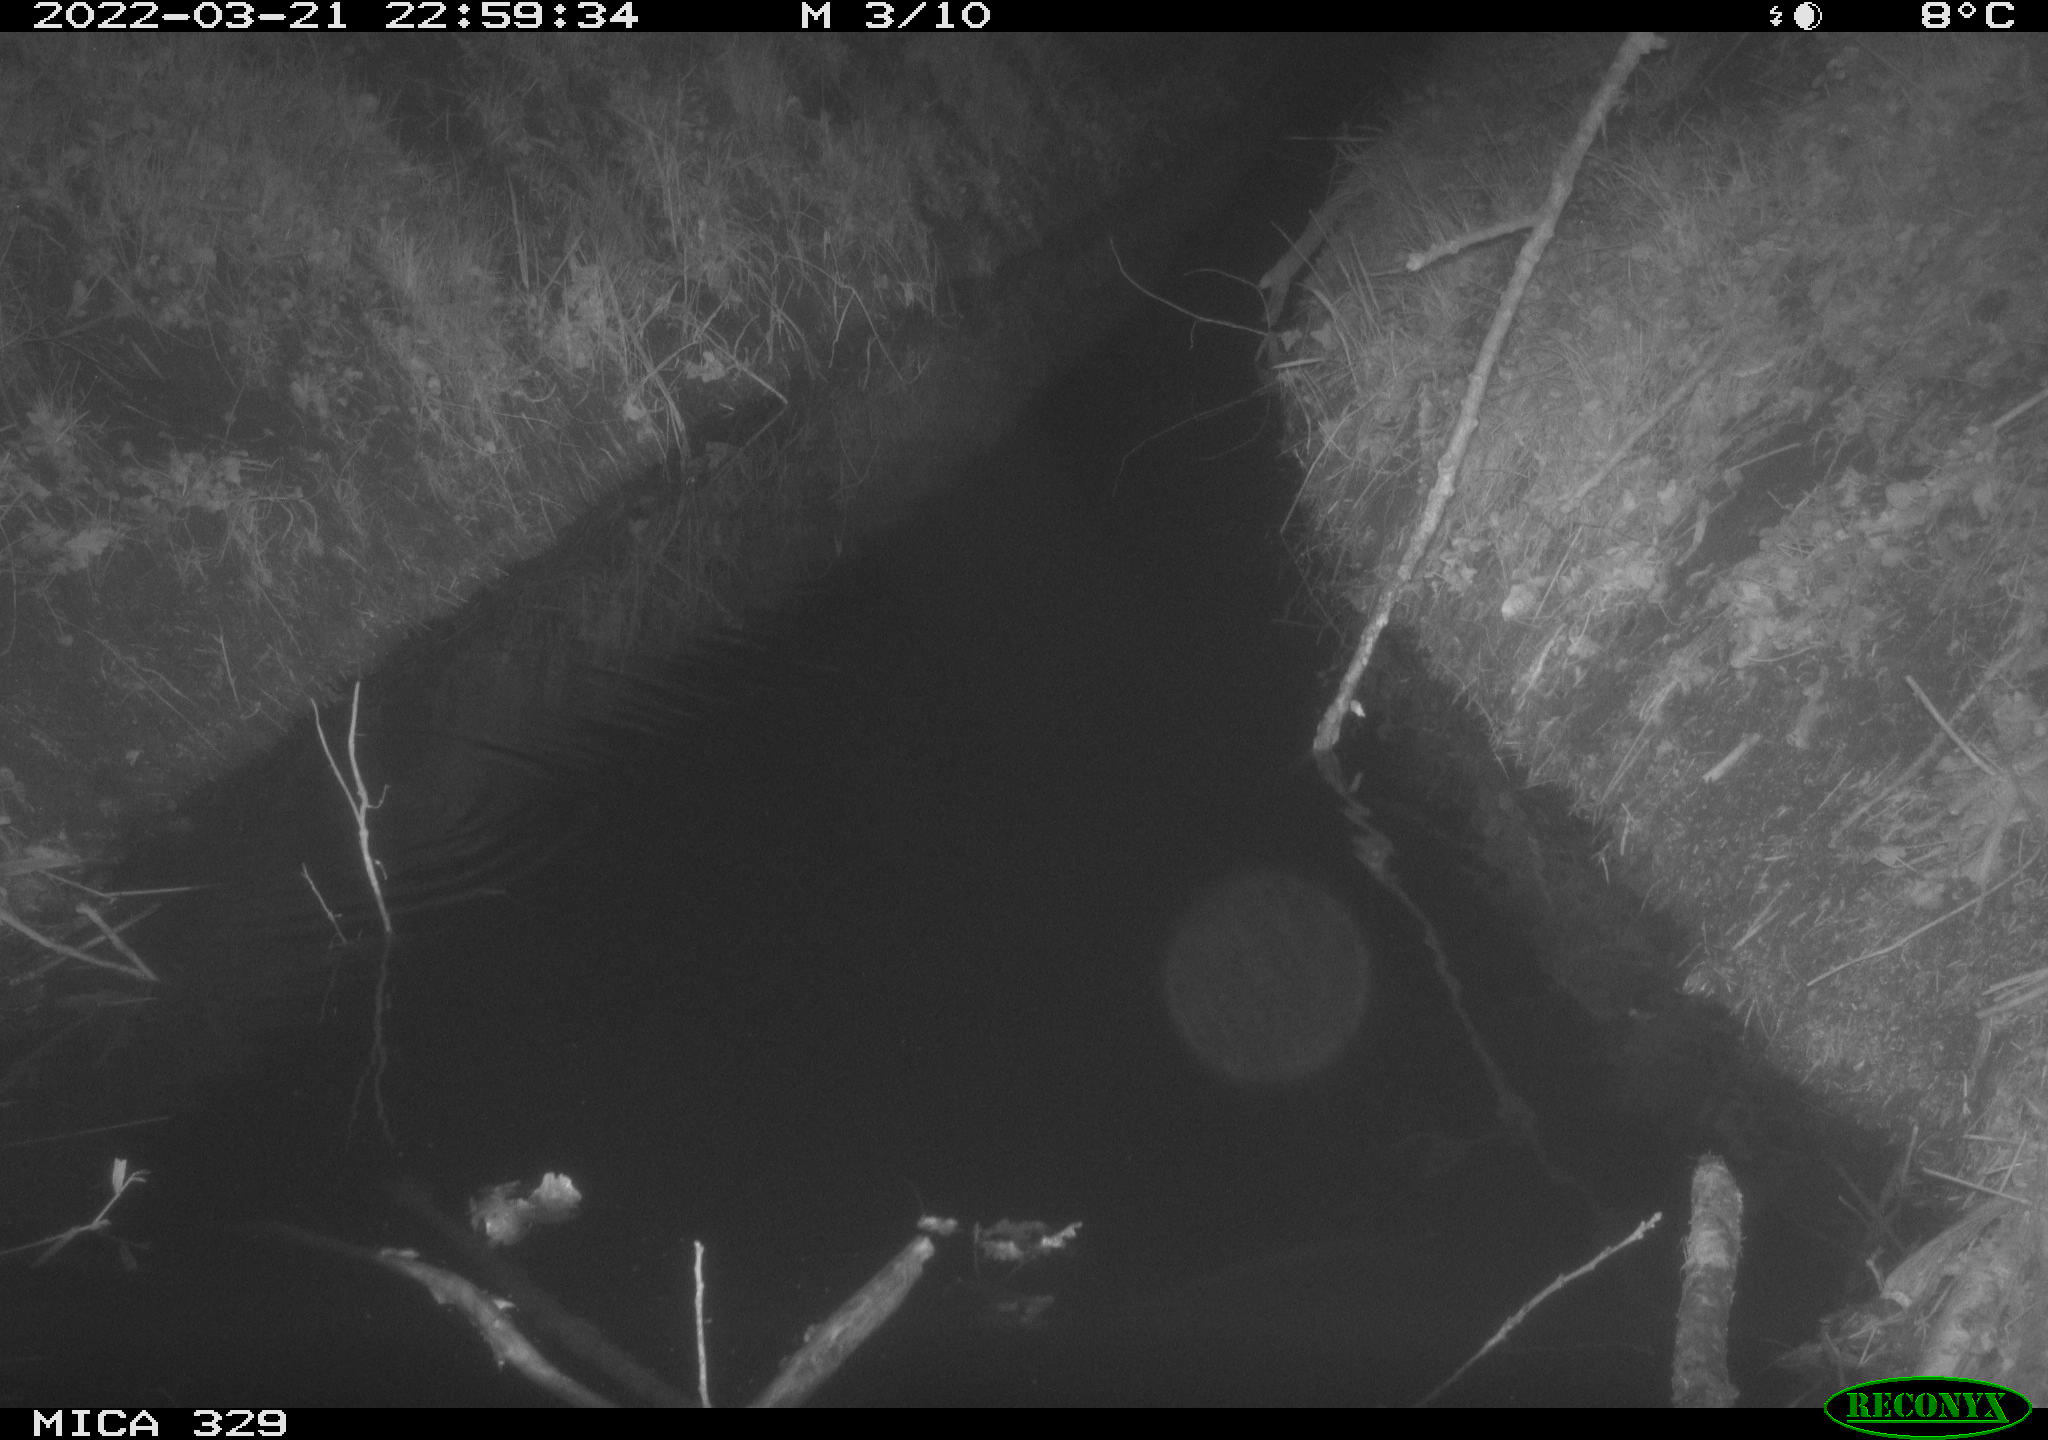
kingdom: Animalia
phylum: Chordata
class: Mammalia
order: Rodentia
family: Muridae
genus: Rattus
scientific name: Rattus norvegicus
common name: Brown rat
